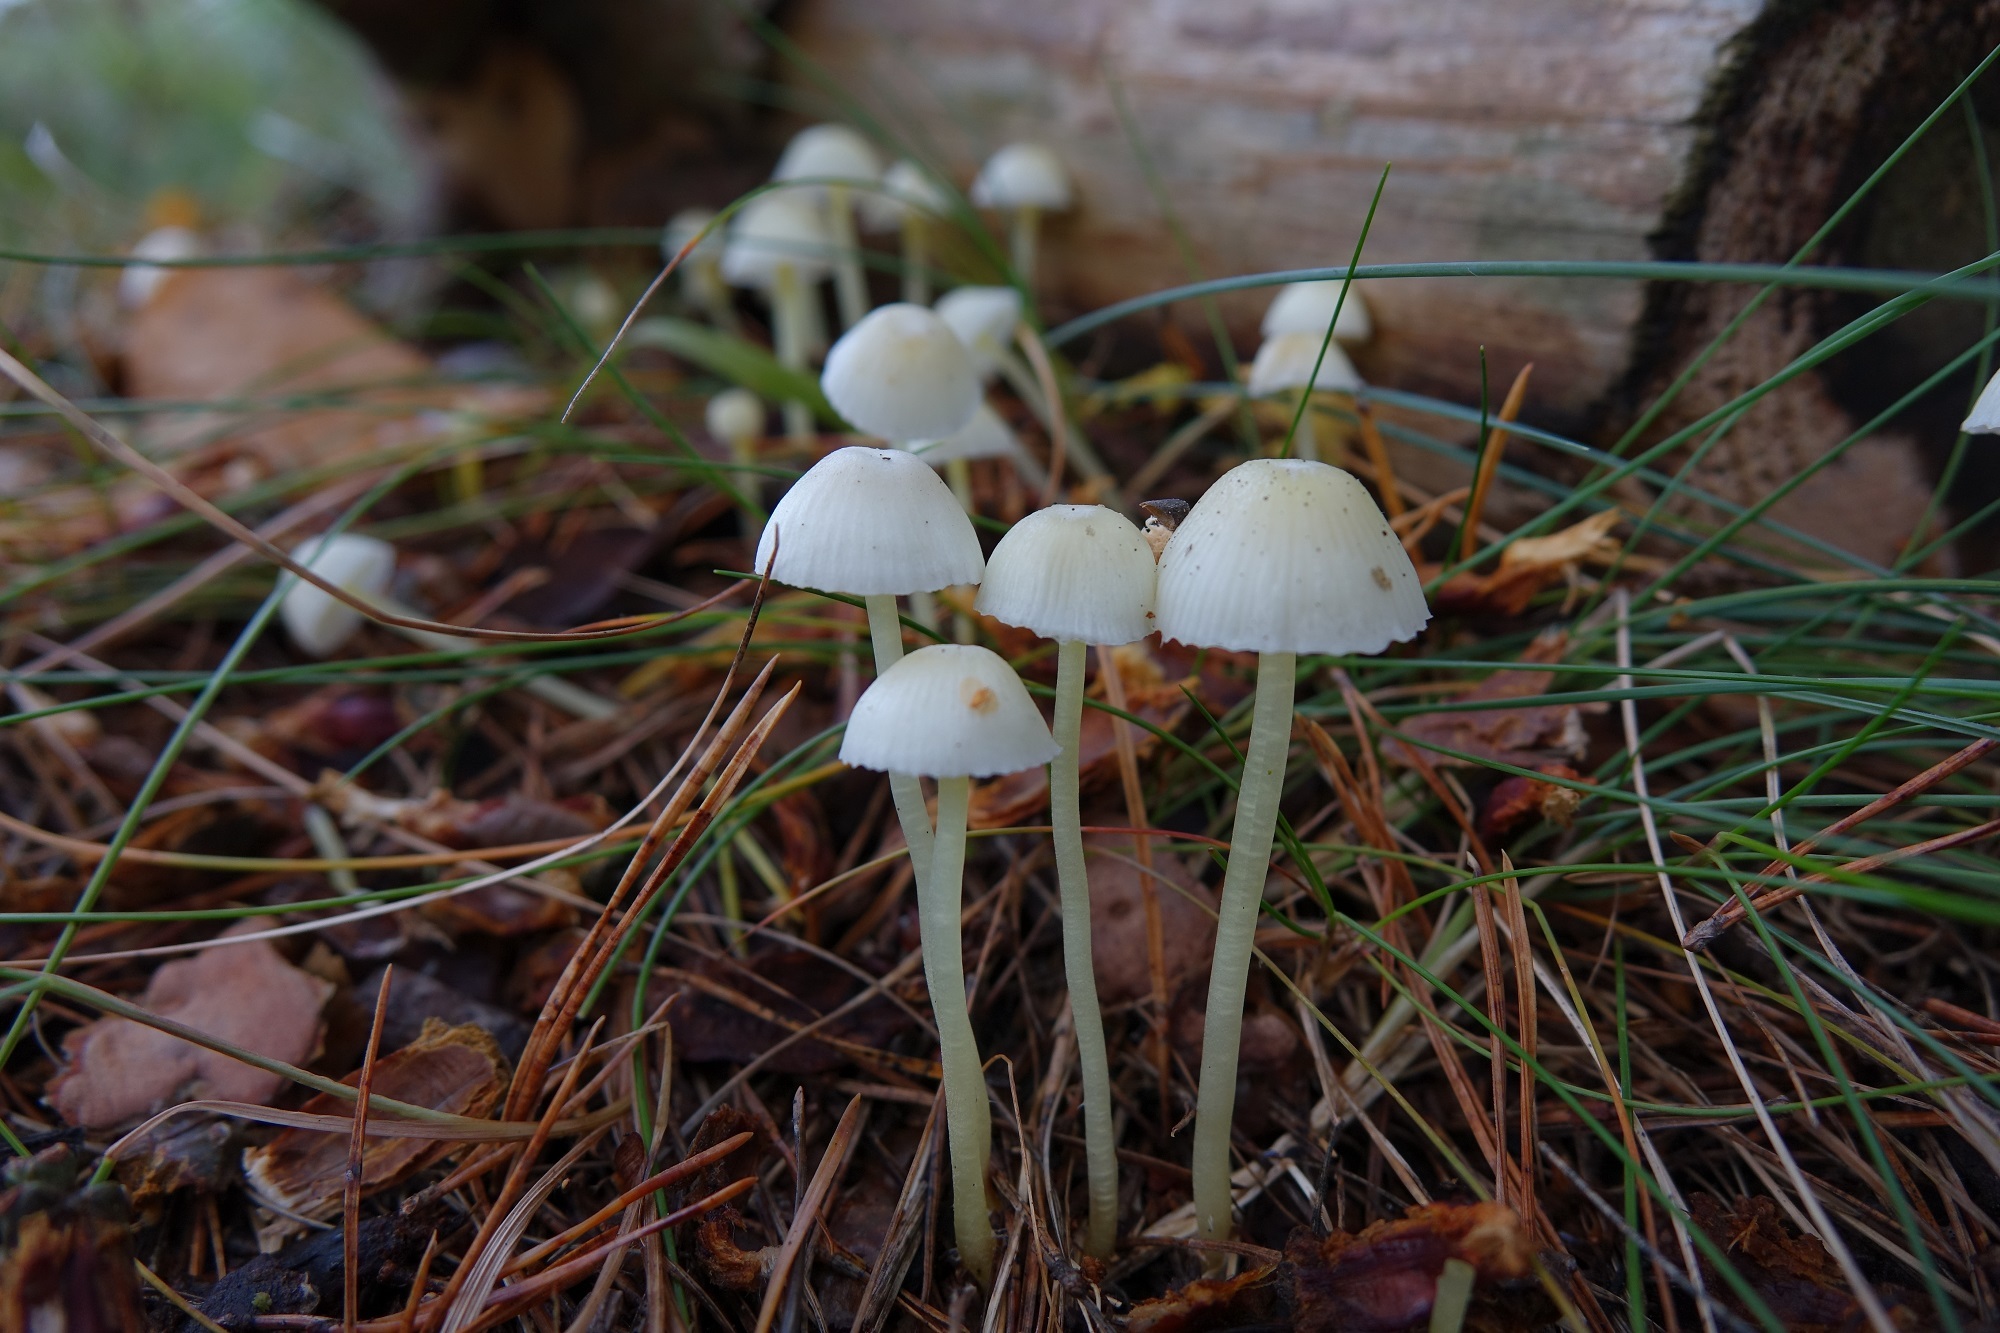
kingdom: Fungi
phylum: Basidiomycota
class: Agaricomycetes
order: Agaricales
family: Mycenaceae
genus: Mycena
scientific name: Mycena epipterygia
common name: Yellowleg bonnet
